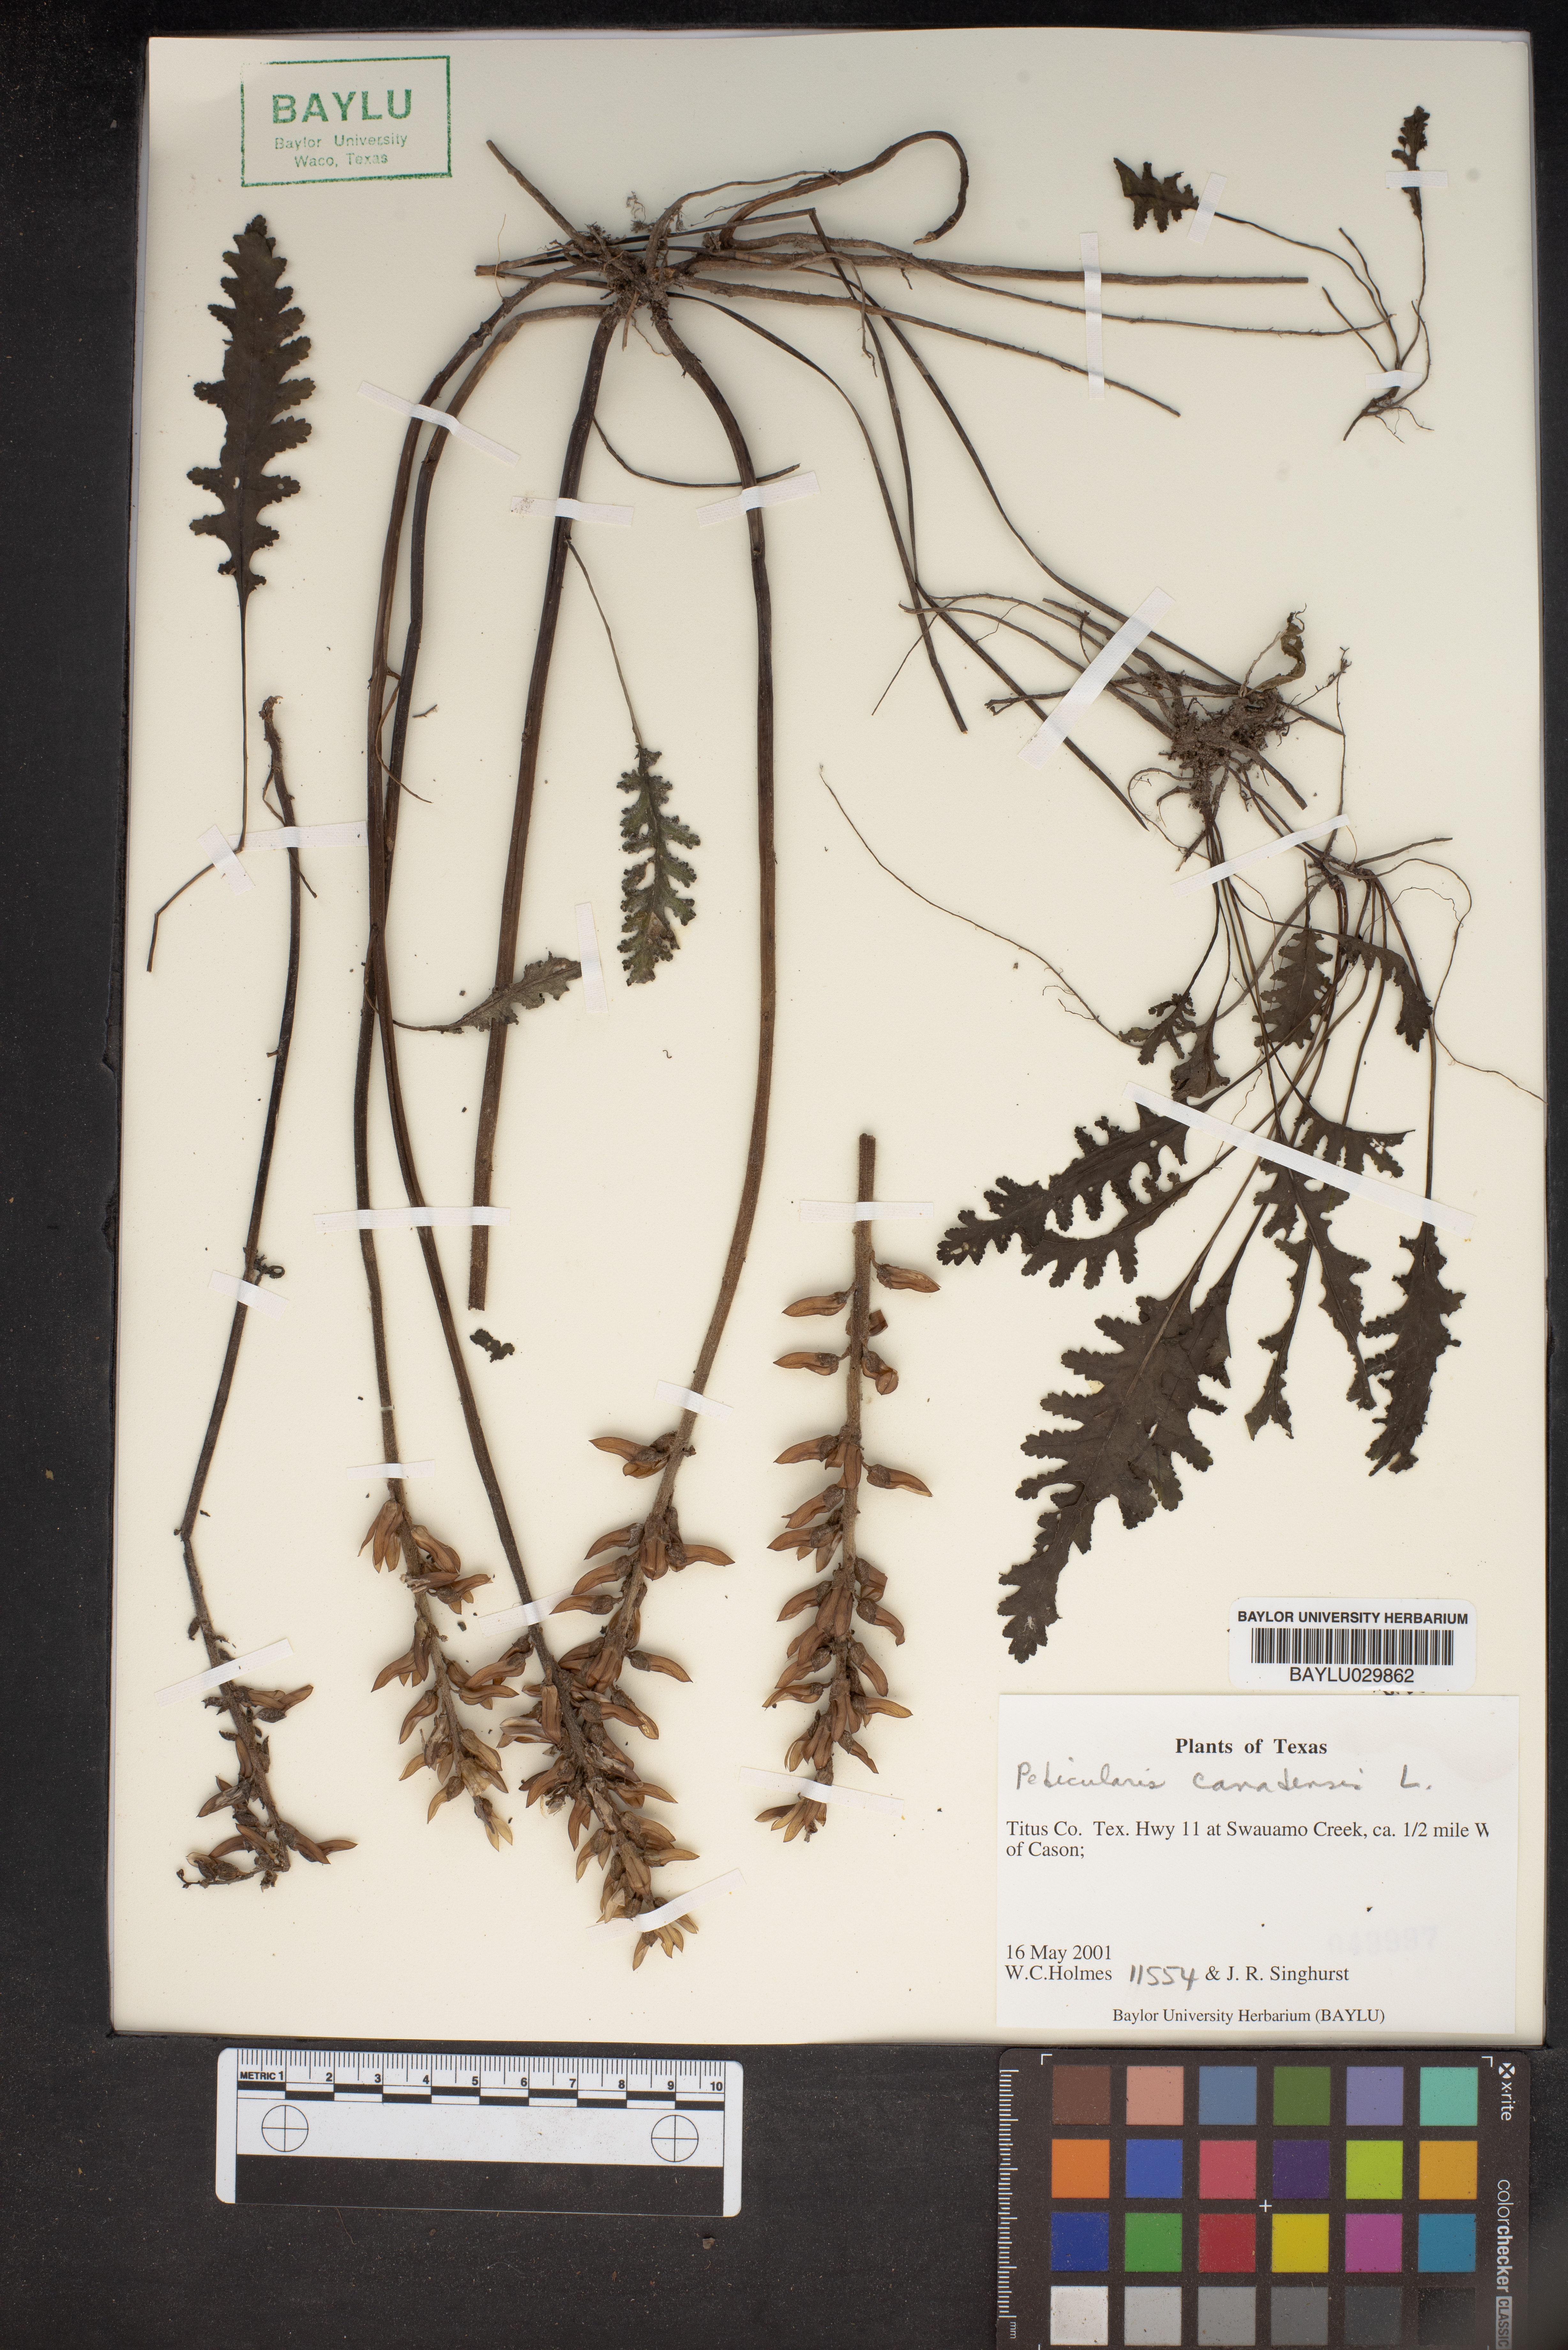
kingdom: Plantae
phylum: Tracheophyta
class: Magnoliopsida
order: Lamiales
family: Orobanchaceae
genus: Pedicularis
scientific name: Pedicularis canadensis
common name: Early lousewort
